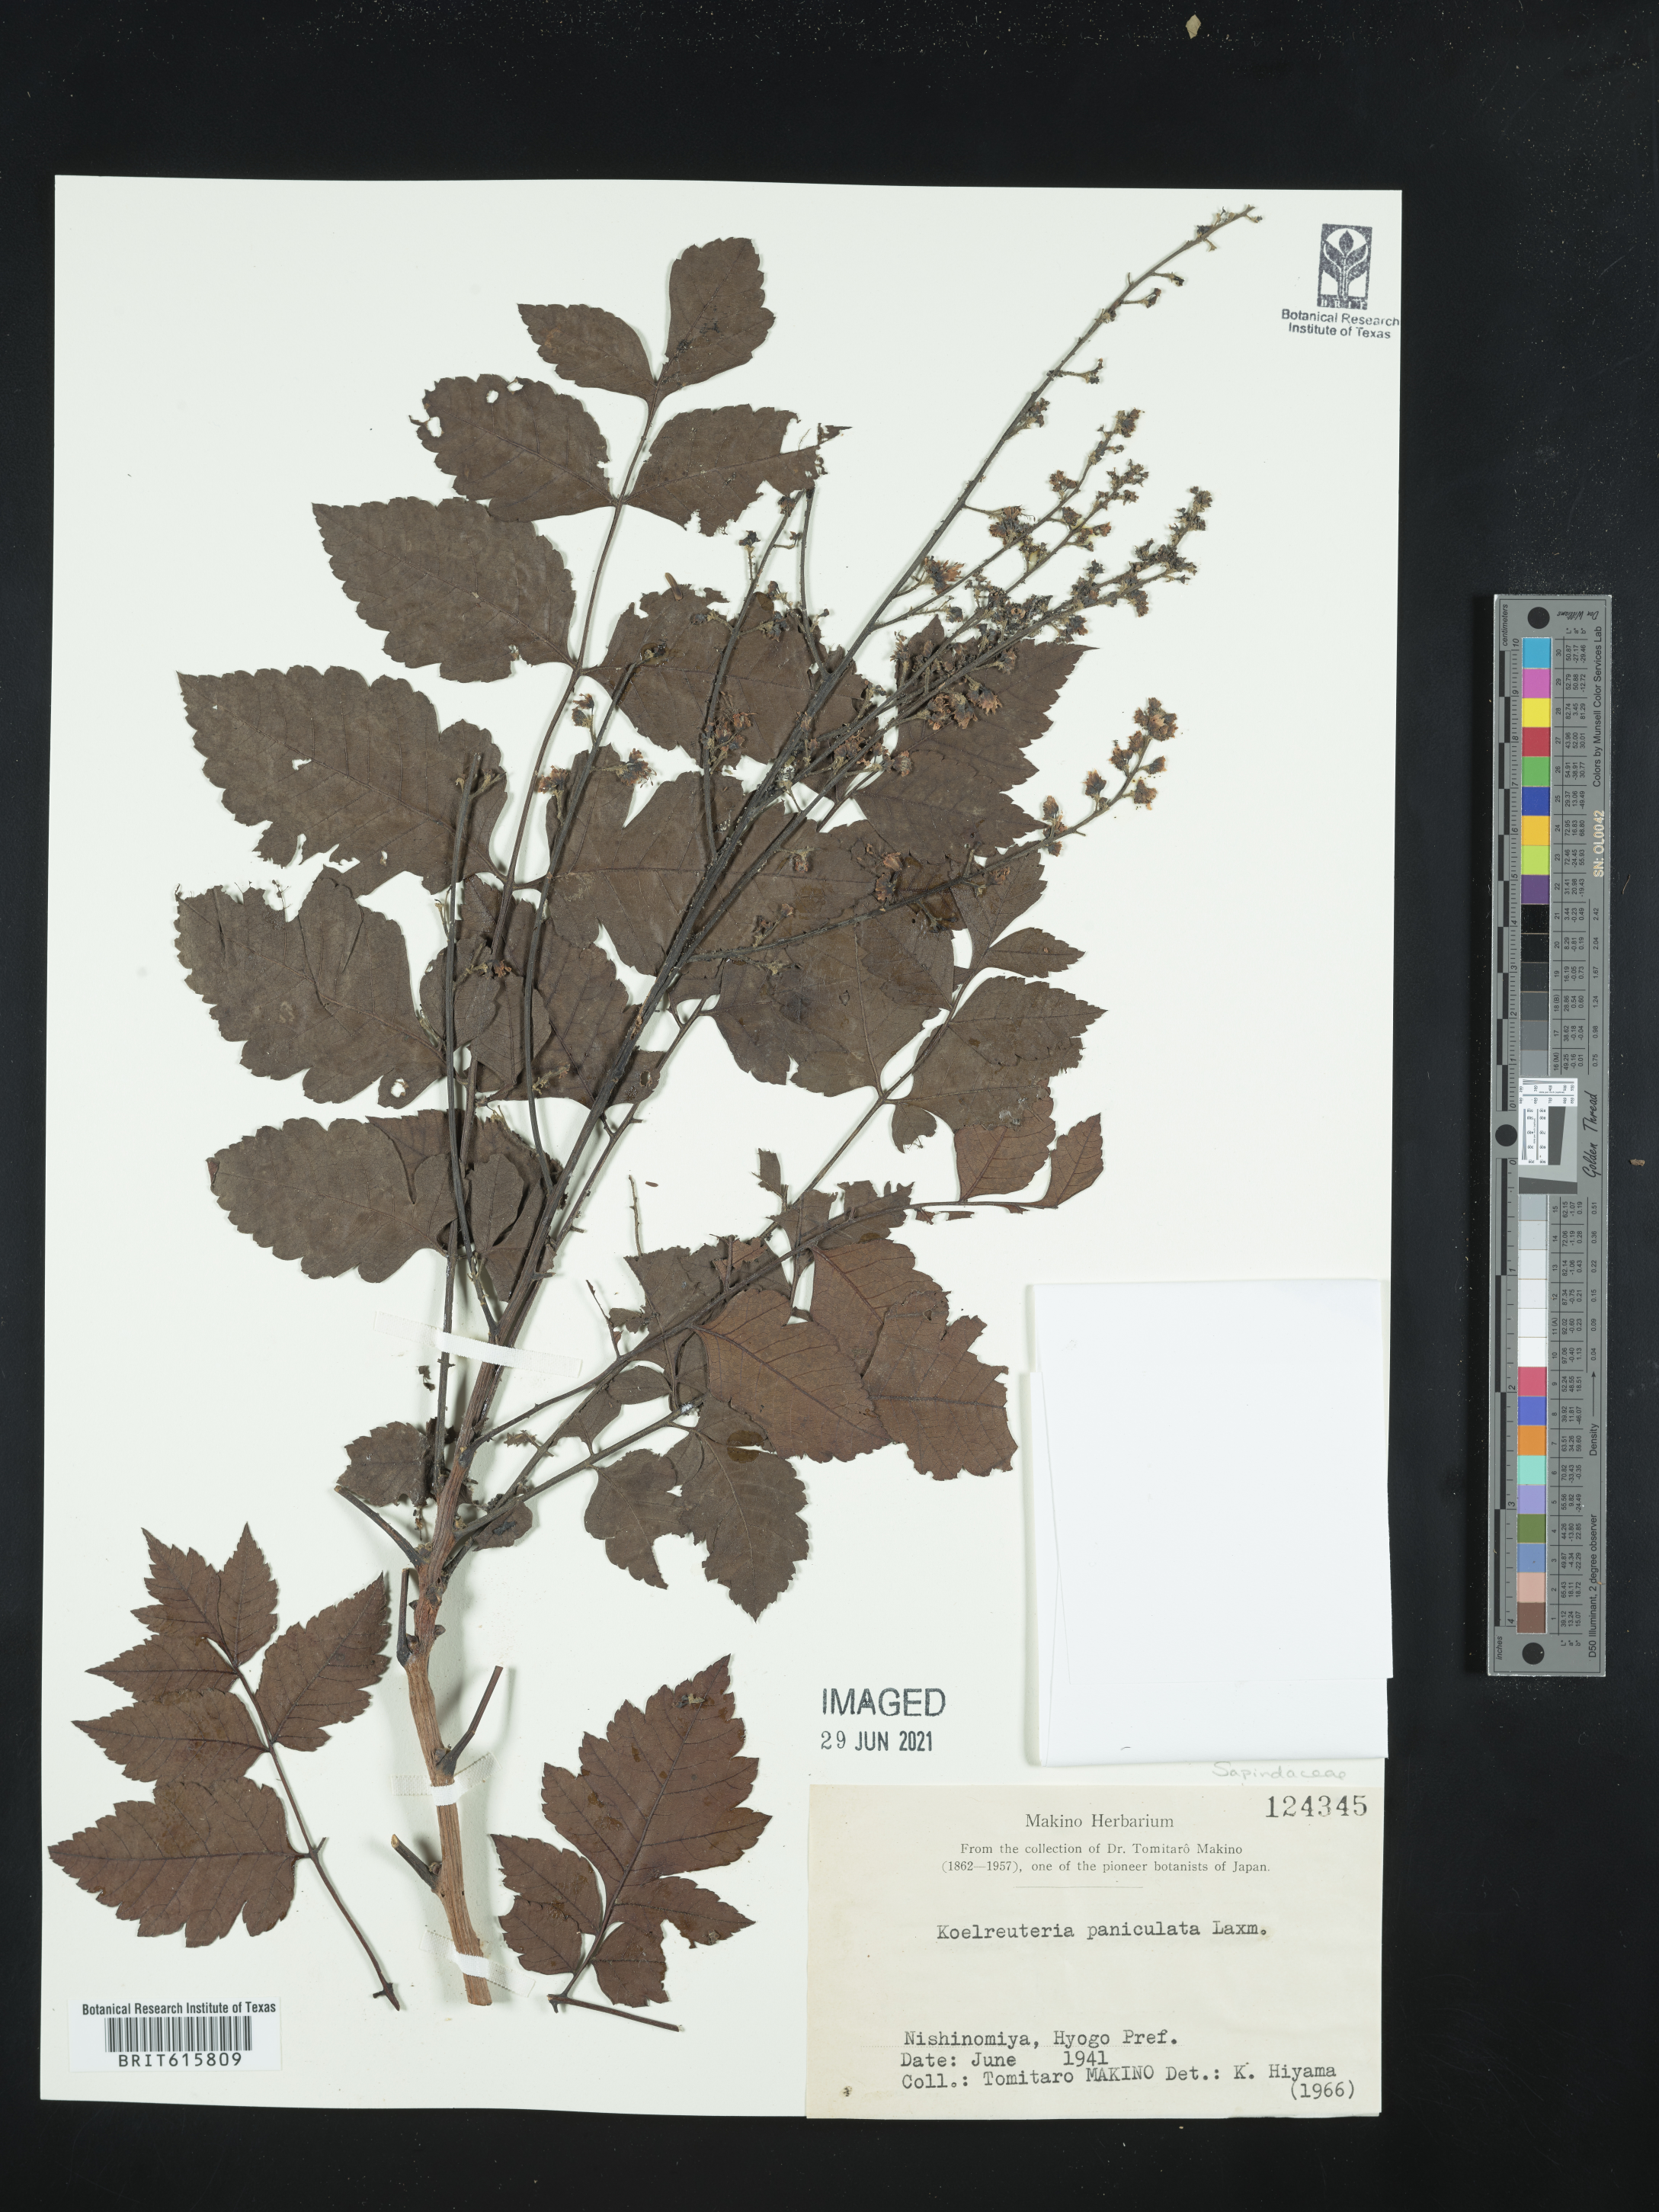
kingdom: Plantae
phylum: Tracheophyta
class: Magnoliopsida
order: Sapindales
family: Sapindaceae
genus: Koelreuteria
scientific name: Koelreuteria paniculata
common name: Pride-of-india
